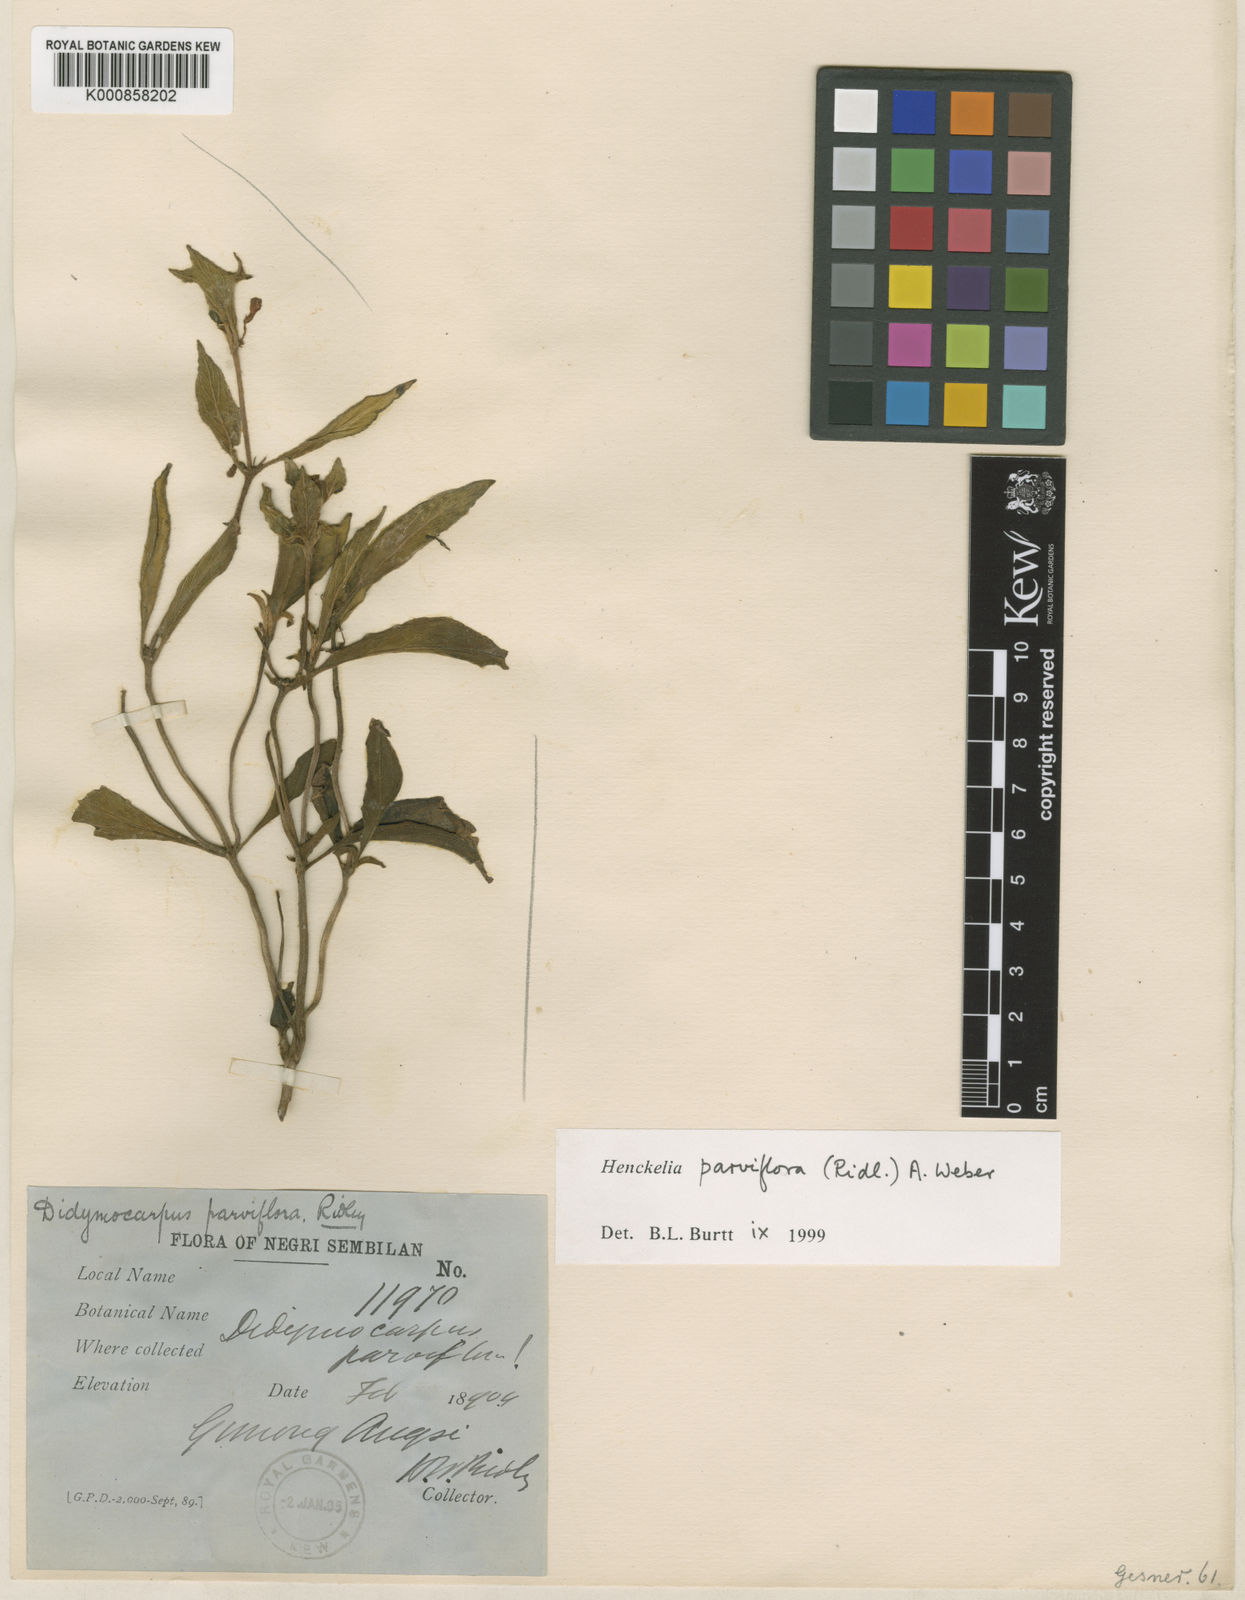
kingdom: Plantae
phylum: Tracheophyta
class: Magnoliopsida
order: Lamiales
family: Gesneriaceae
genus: Codonoboea
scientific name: Codonoboea parviflora
